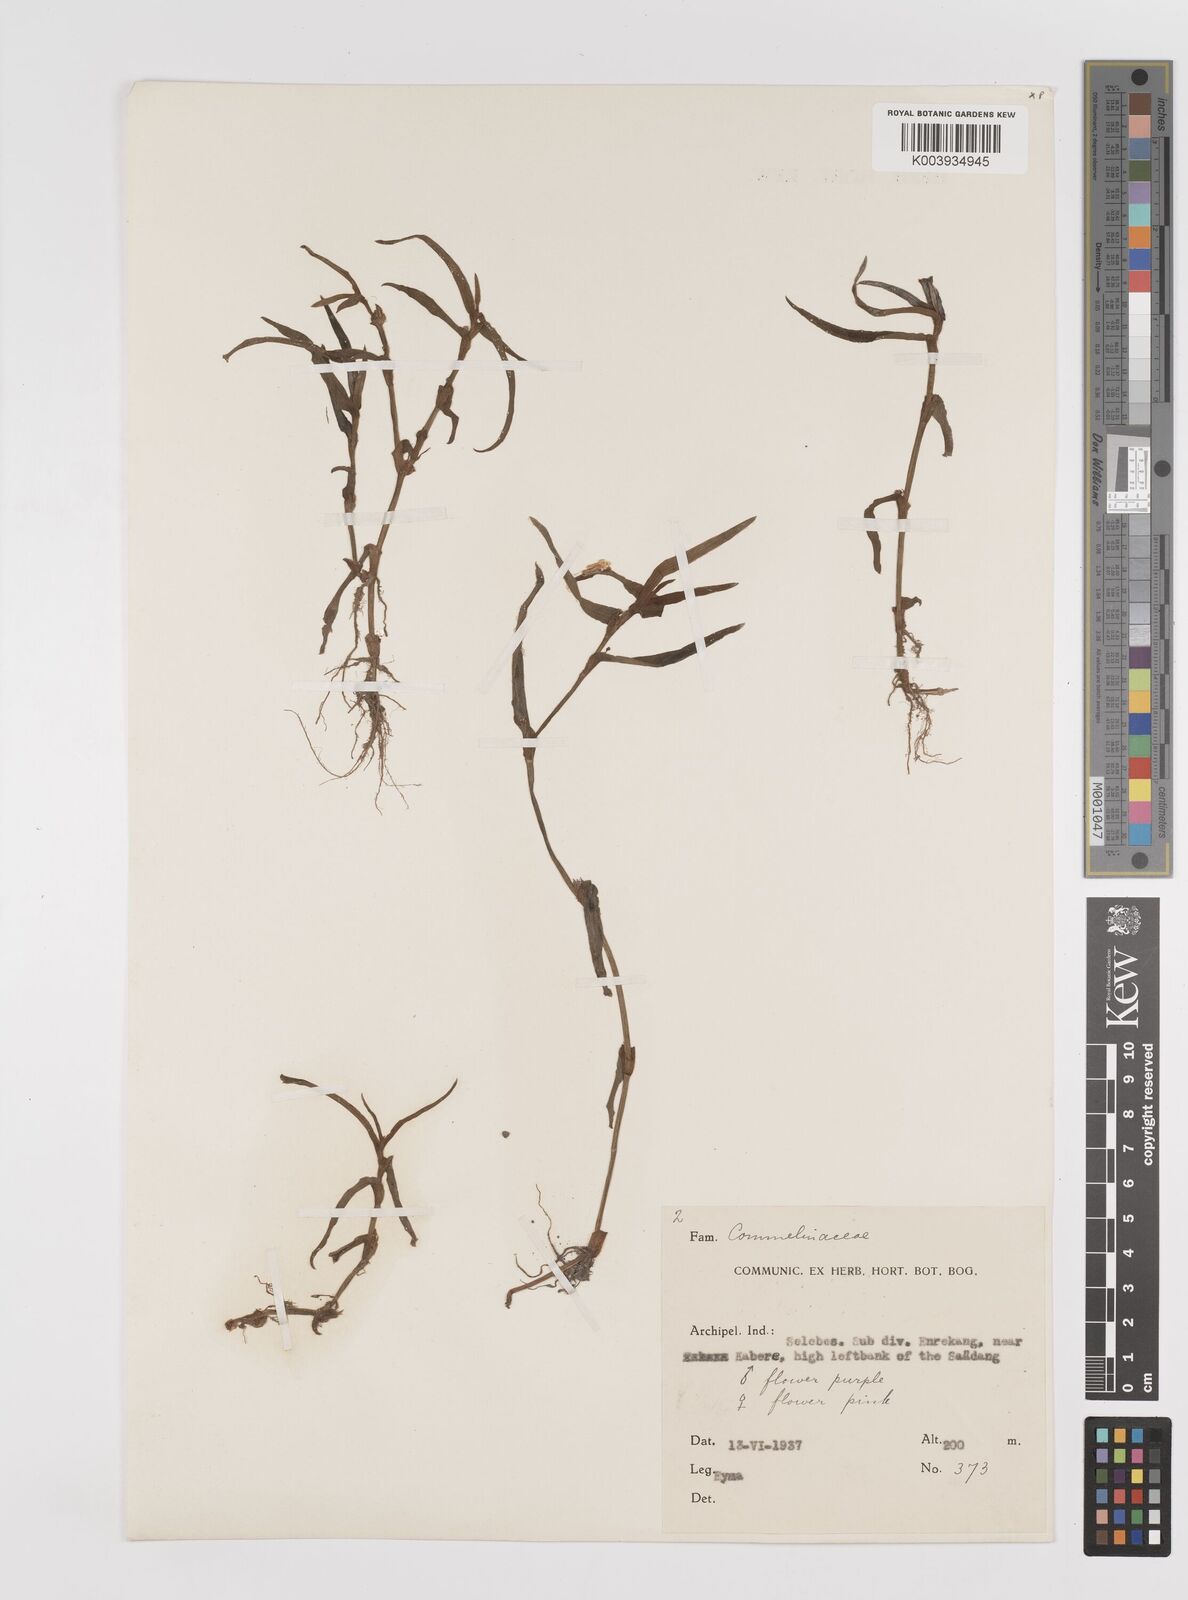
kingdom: Plantae
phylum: Tracheophyta
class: Liliopsida
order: Commelinales
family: Commelinaceae
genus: Cyanotis
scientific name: Cyanotis
